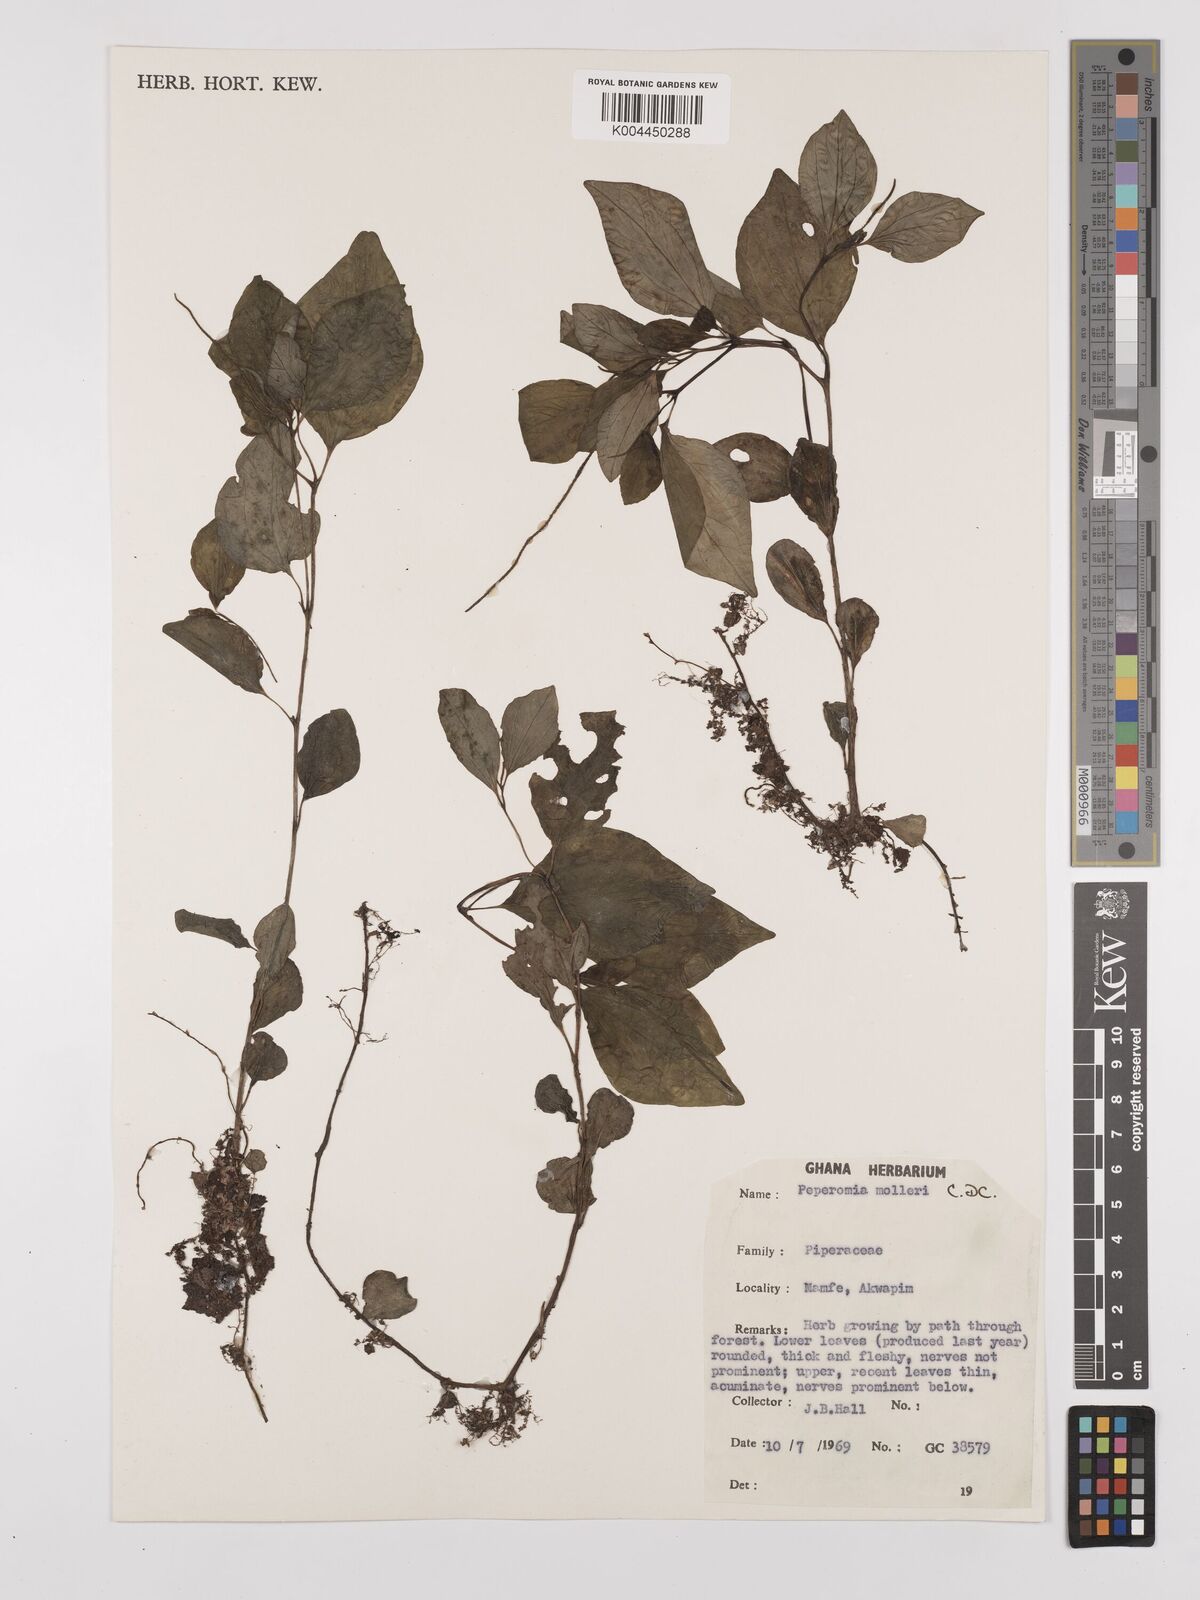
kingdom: Plantae
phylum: Tracheophyta
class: Magnoliopsida
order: Piperales
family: Piperaceae
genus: Peperomia
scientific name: Peperomia molleri
